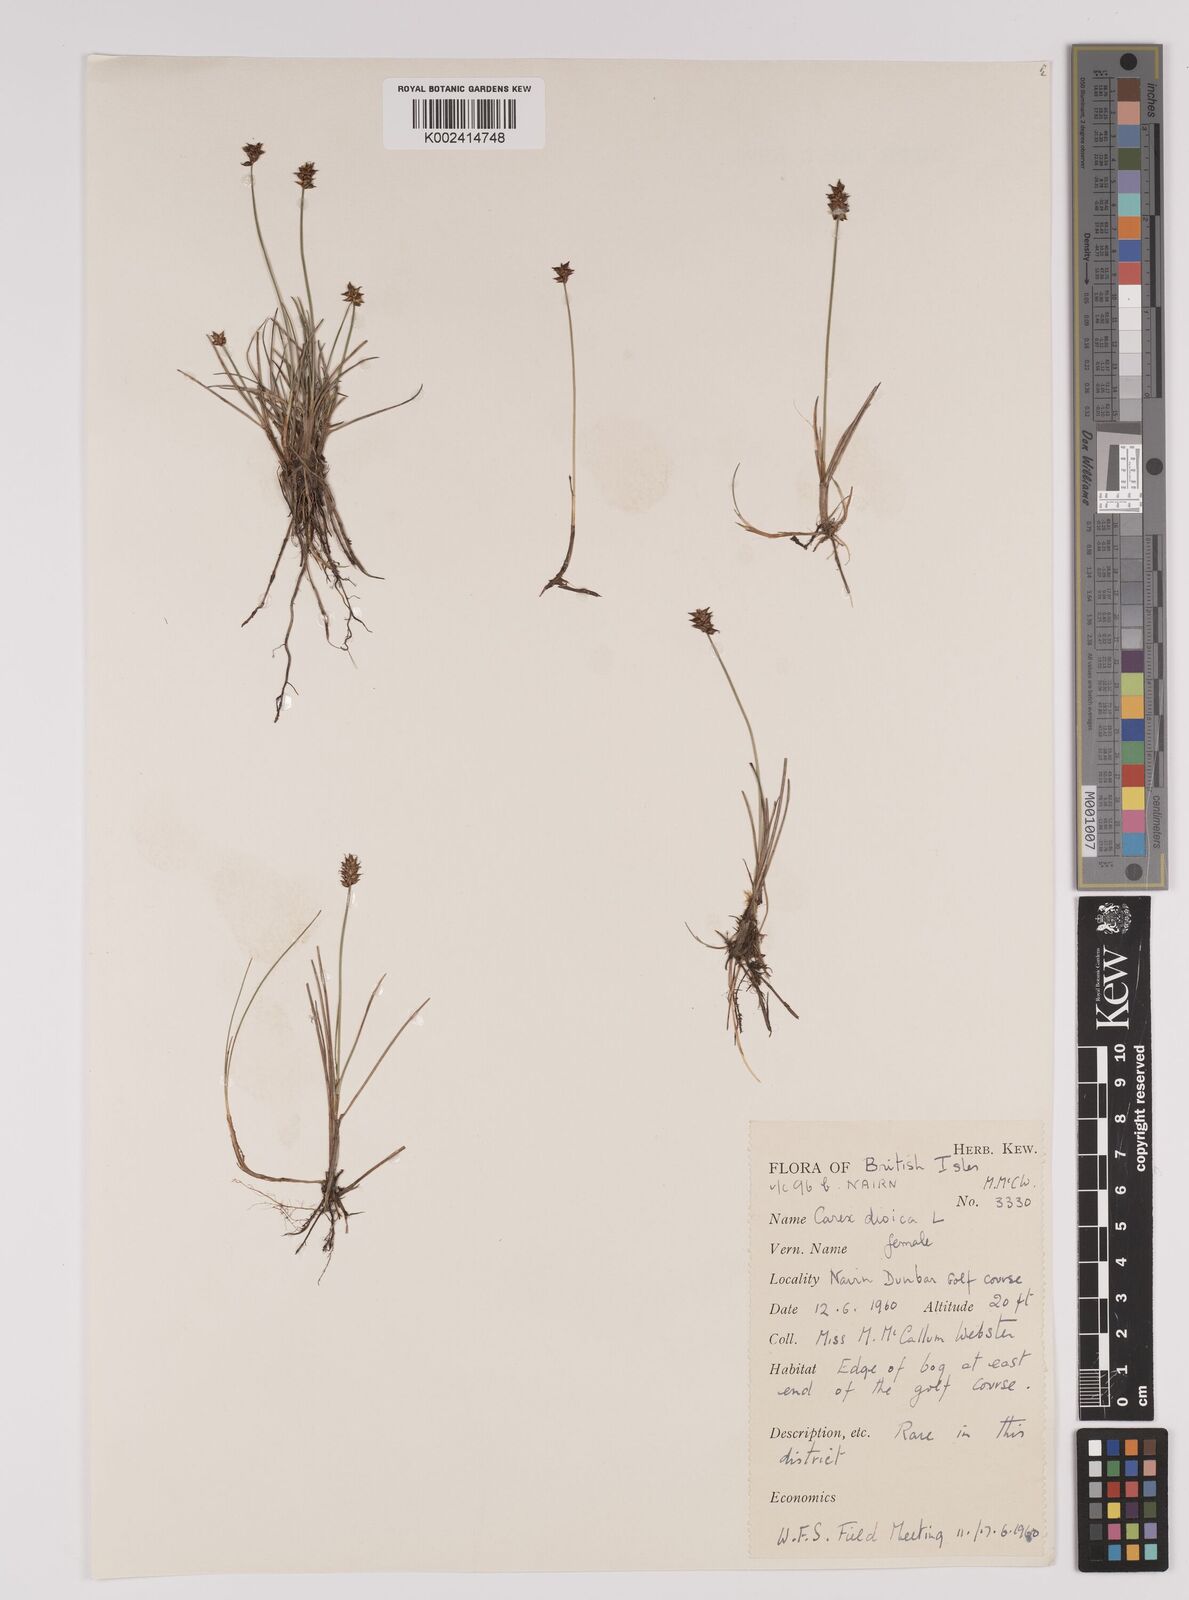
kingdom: Plantae
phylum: Tracheophyta
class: Liliopsida
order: Poales
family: Cyperaceae
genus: Carex
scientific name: Carex dioica
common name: Dioecious sedge
